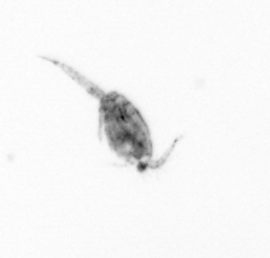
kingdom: Animalia
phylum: Arthropoda
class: Copepoda
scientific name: Copepoda
